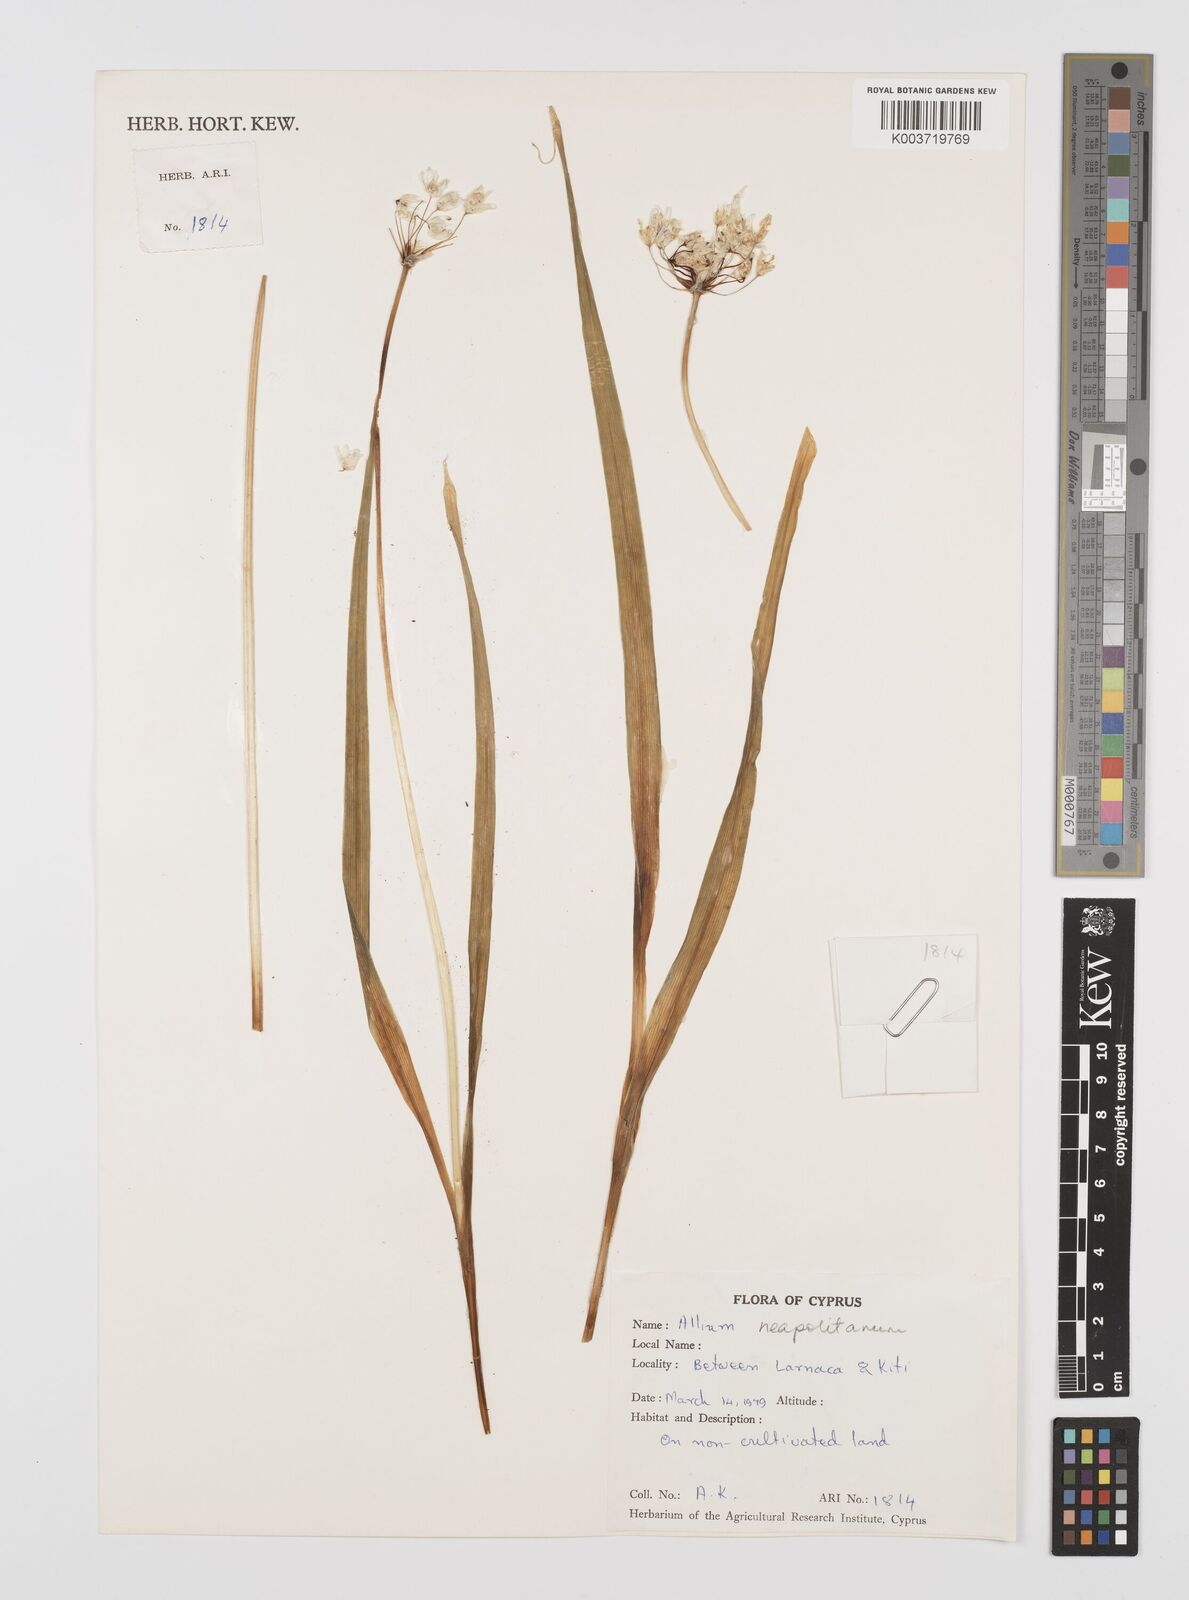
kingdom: Plantae
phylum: Tracheophyta
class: Liliopsida
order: Asparagales
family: Amaryllidaceae
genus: Allium
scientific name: Allium neapolitanum
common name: Neapolitan garlic
